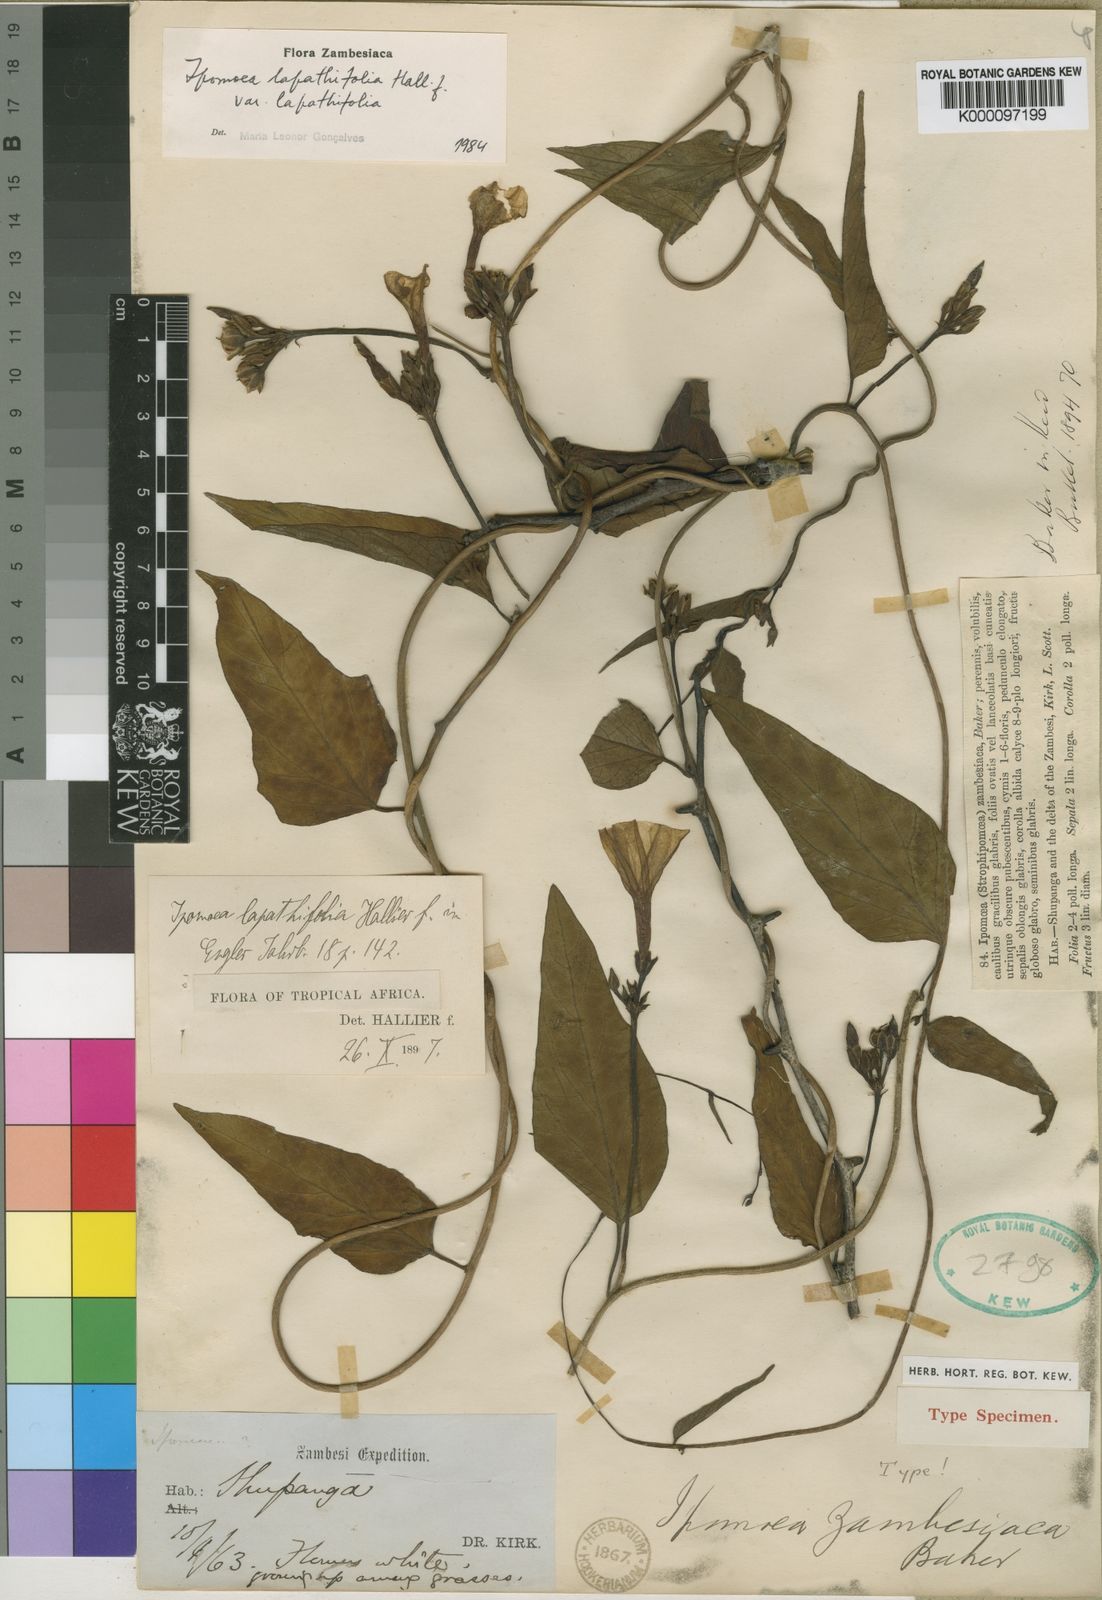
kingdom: Plantae
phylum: Tracheophyta
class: Magnoliopsida
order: Solanales
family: Convolvulaceae
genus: Ipomoea
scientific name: Ipomoea lapathifolia
